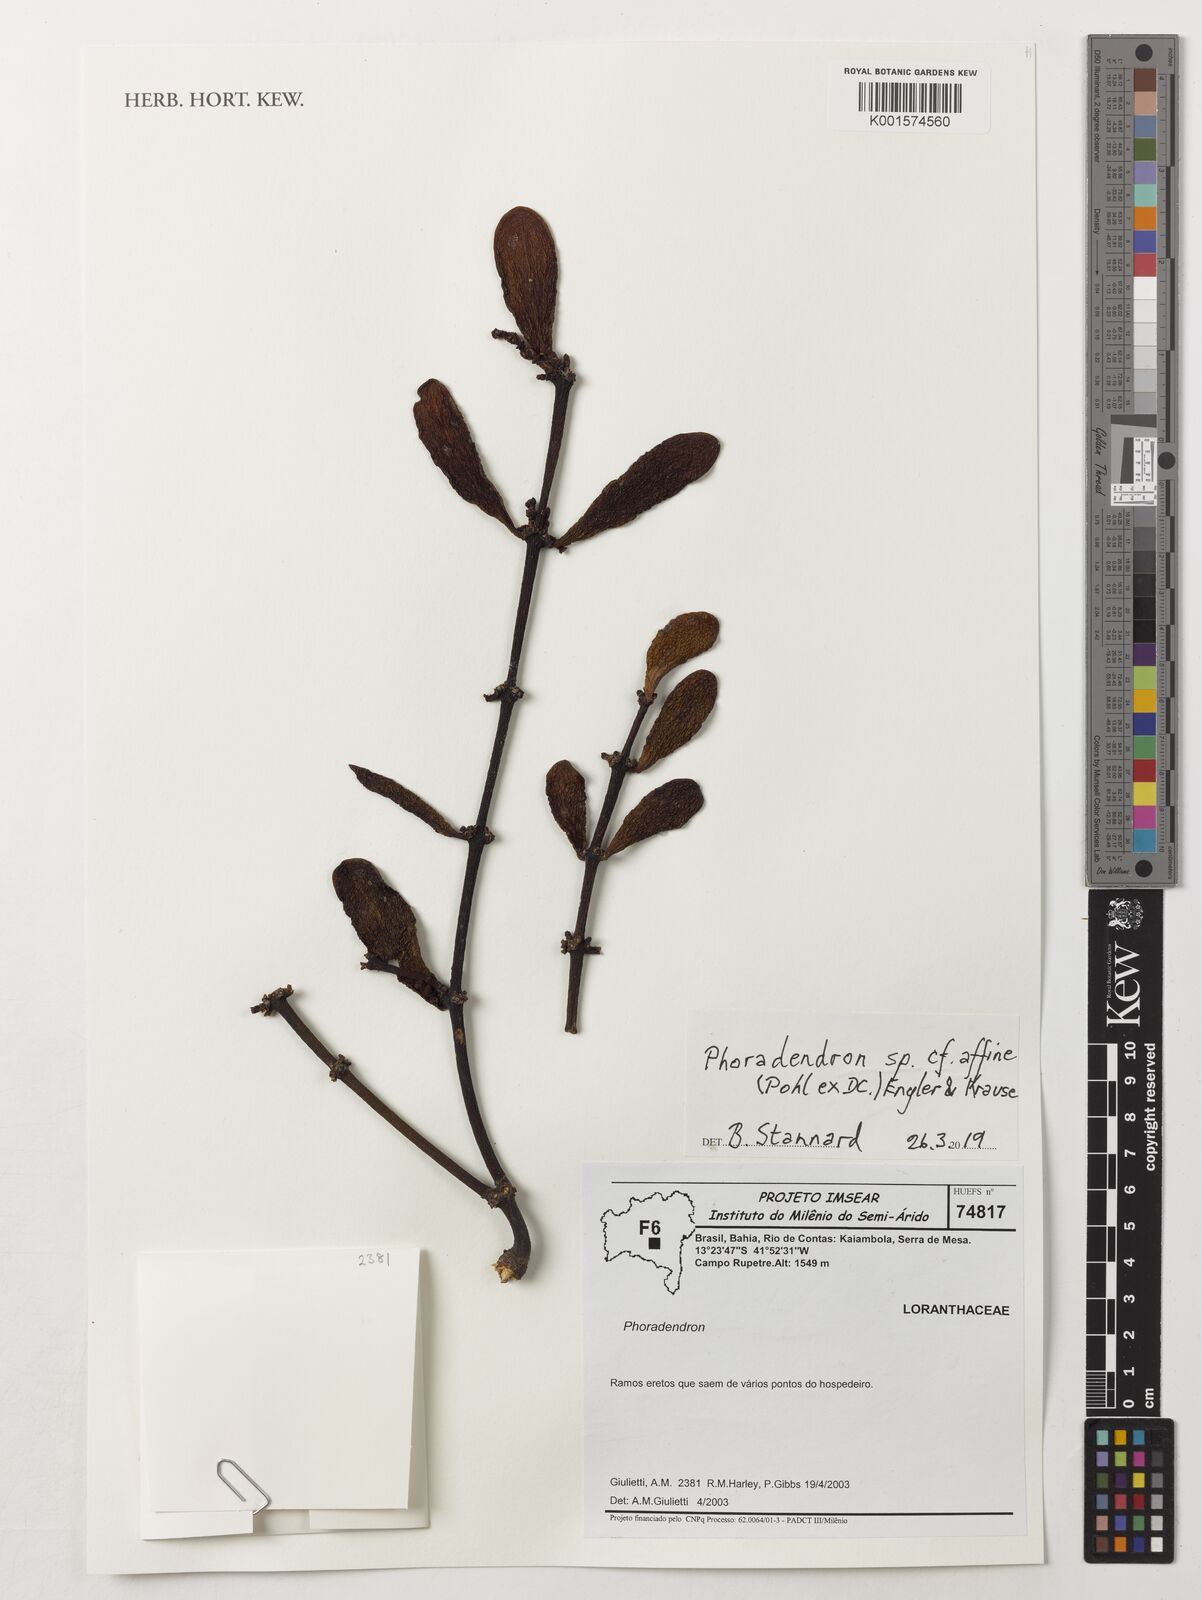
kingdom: Plantae
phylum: Tracheophyta
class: Magnoliopsida
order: Santalales
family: Viscaceae
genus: Phoradendron
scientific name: Phoradendron affine
